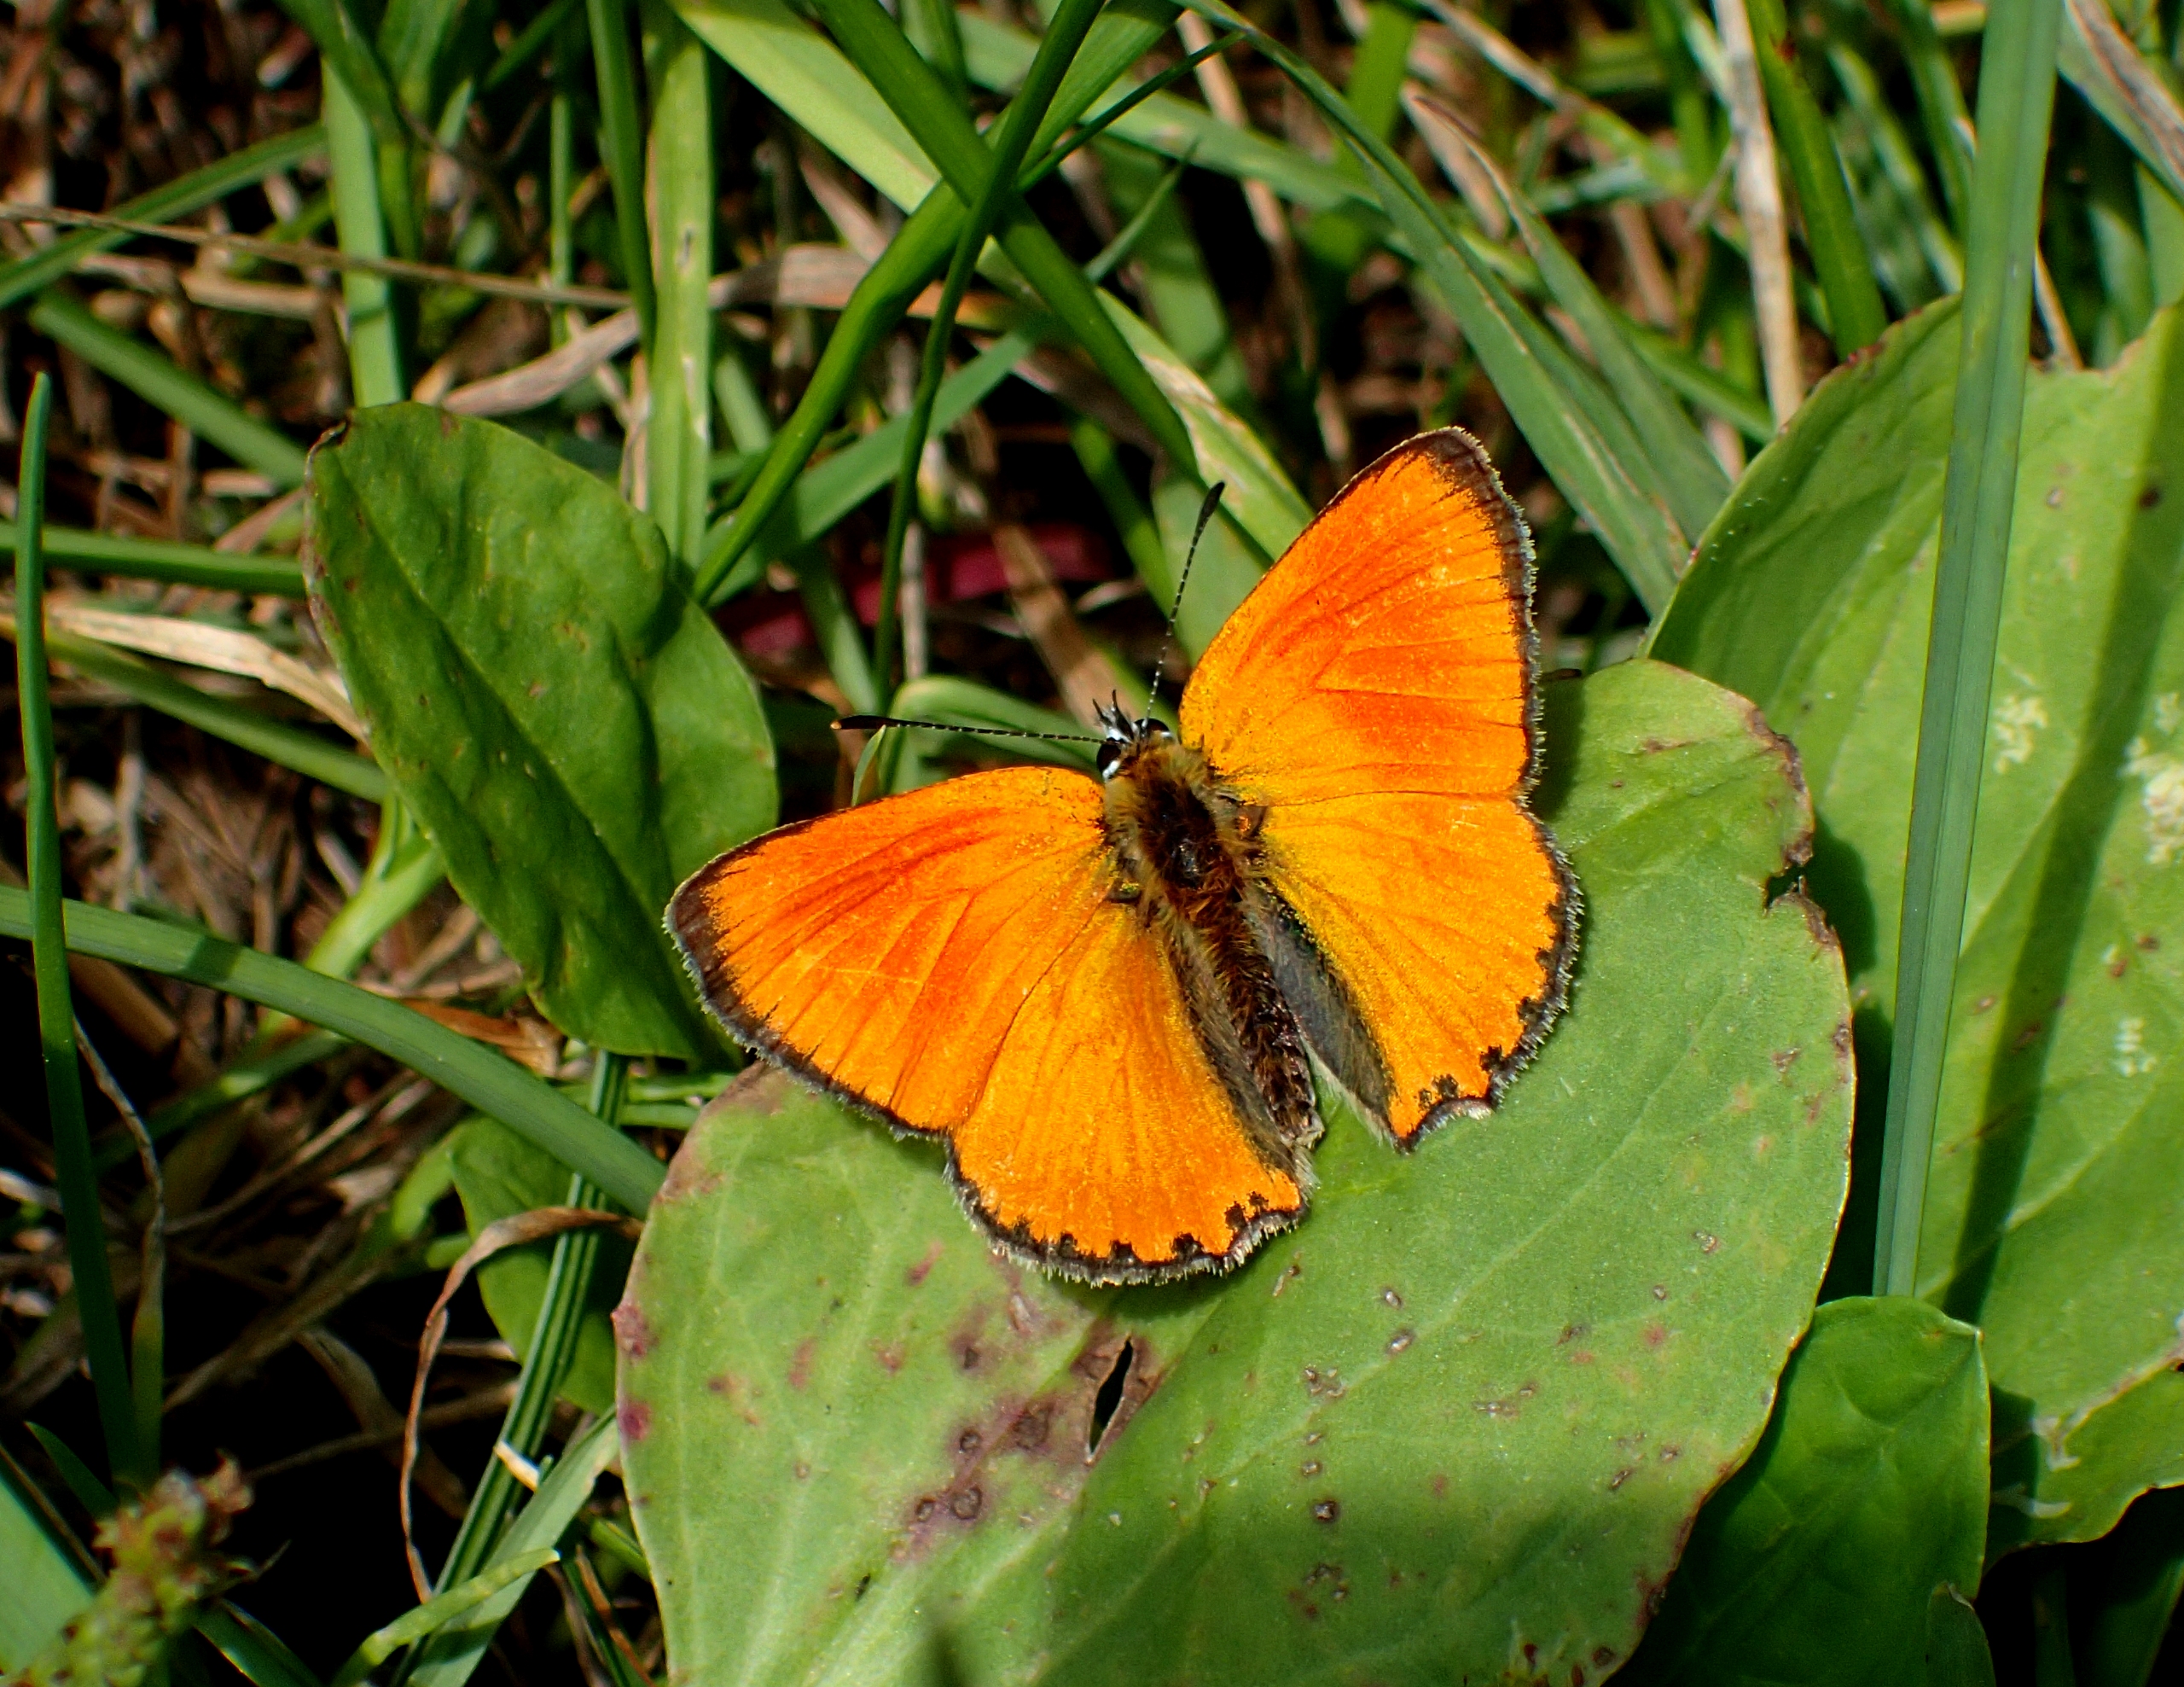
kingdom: Animalia
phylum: Arthropoda
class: Insecta
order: Lepidoptera
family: Lycaenidae
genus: Lycaena
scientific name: Lycaena virgaureae
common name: Dukatsommerfugl
